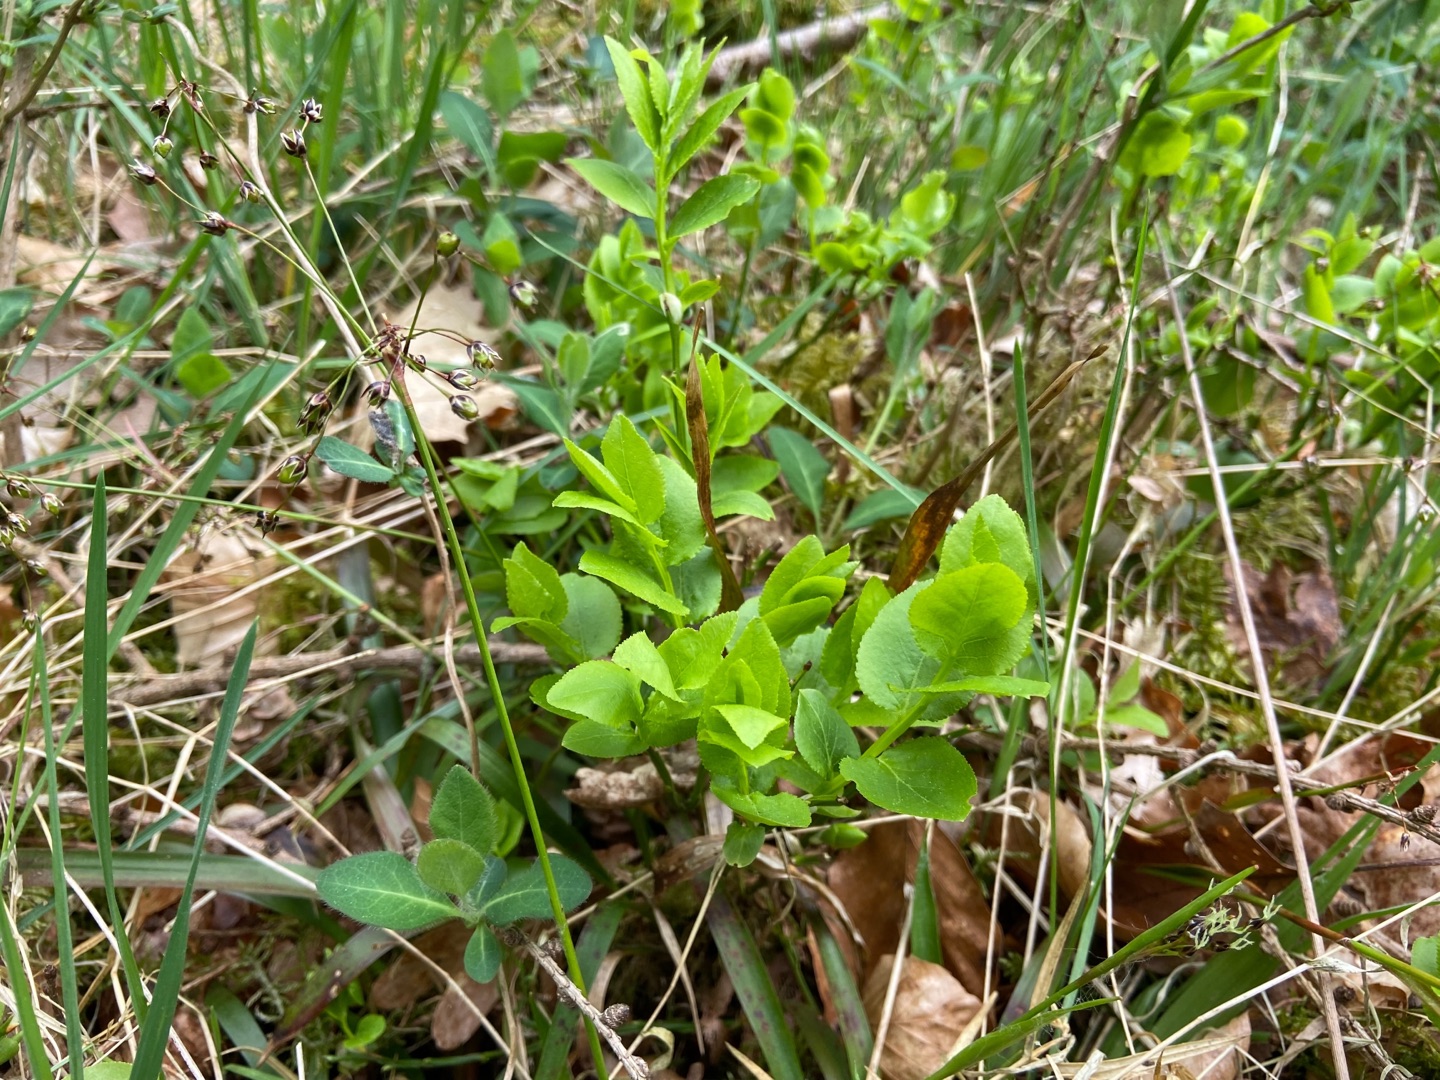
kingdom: Plantae
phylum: Tracheophyta
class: Magnoliopsida
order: Ericales
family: Ericaceae
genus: Vaccinium
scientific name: Vaccinium myrtillus
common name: Blåbær
